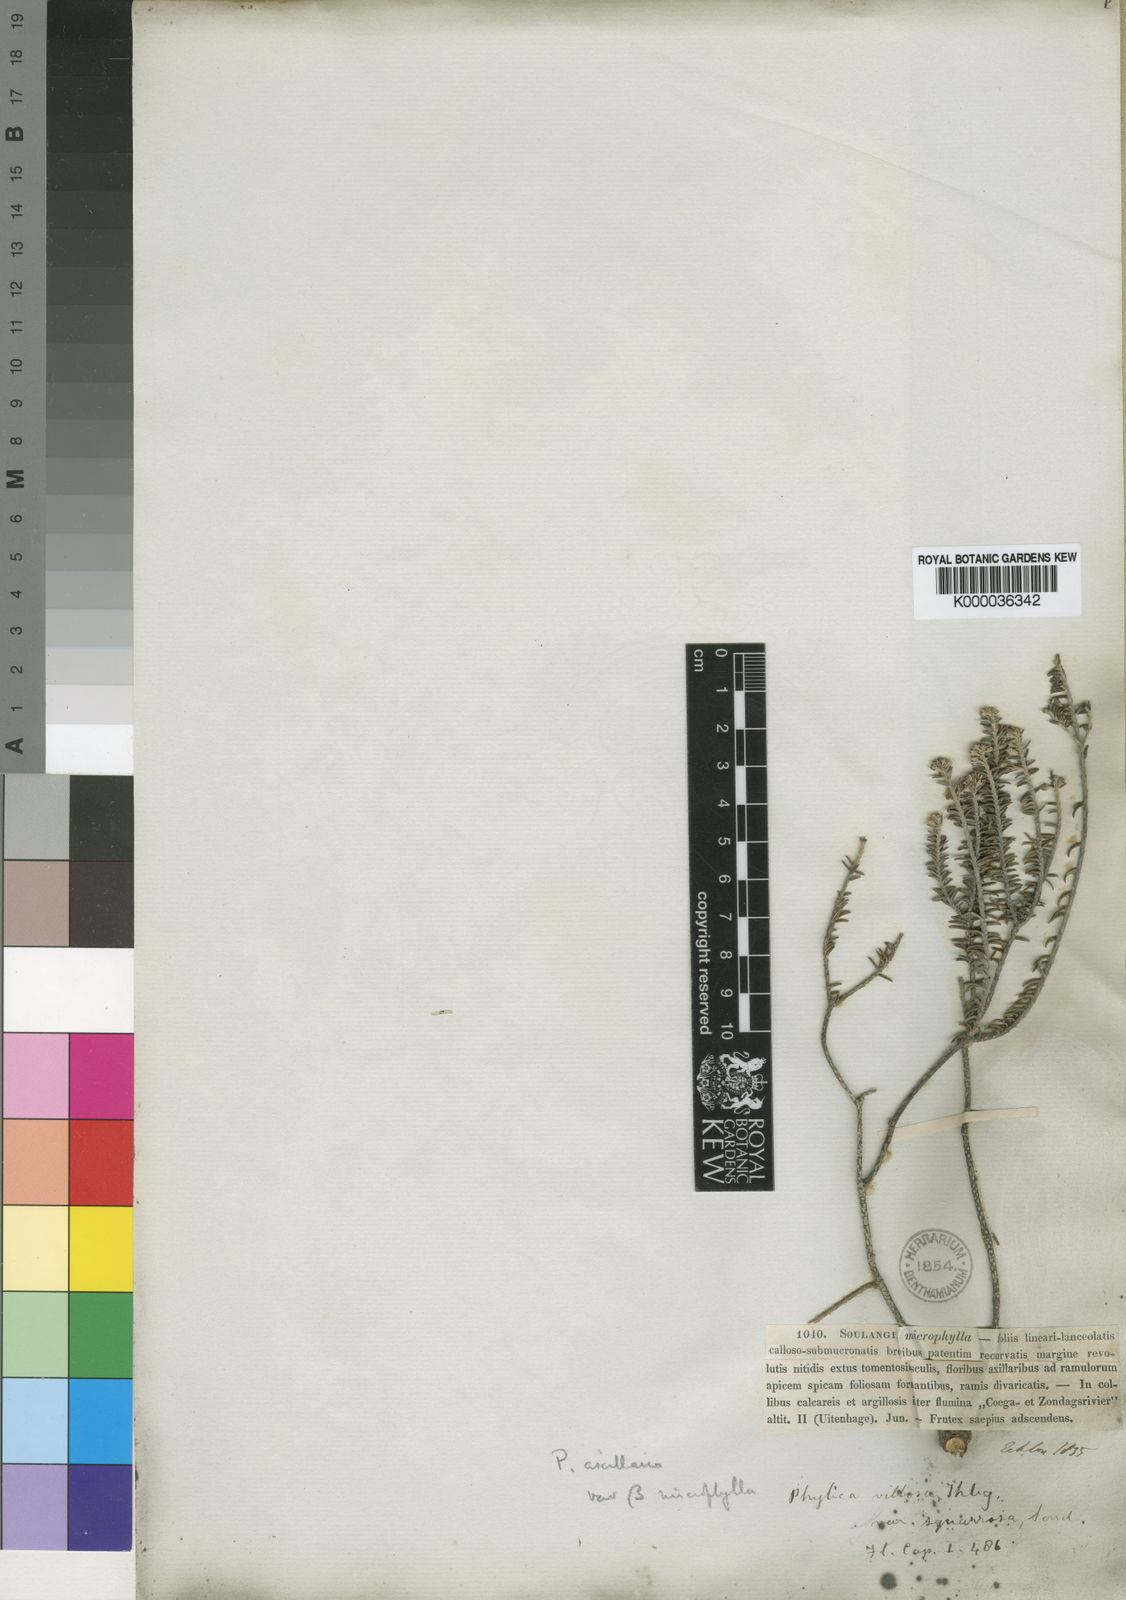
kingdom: Plantae
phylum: Tracheophyta
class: Magnoliopsida
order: Rosales
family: Rhamnaceae
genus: Phylica
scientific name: Phylica axillaris
